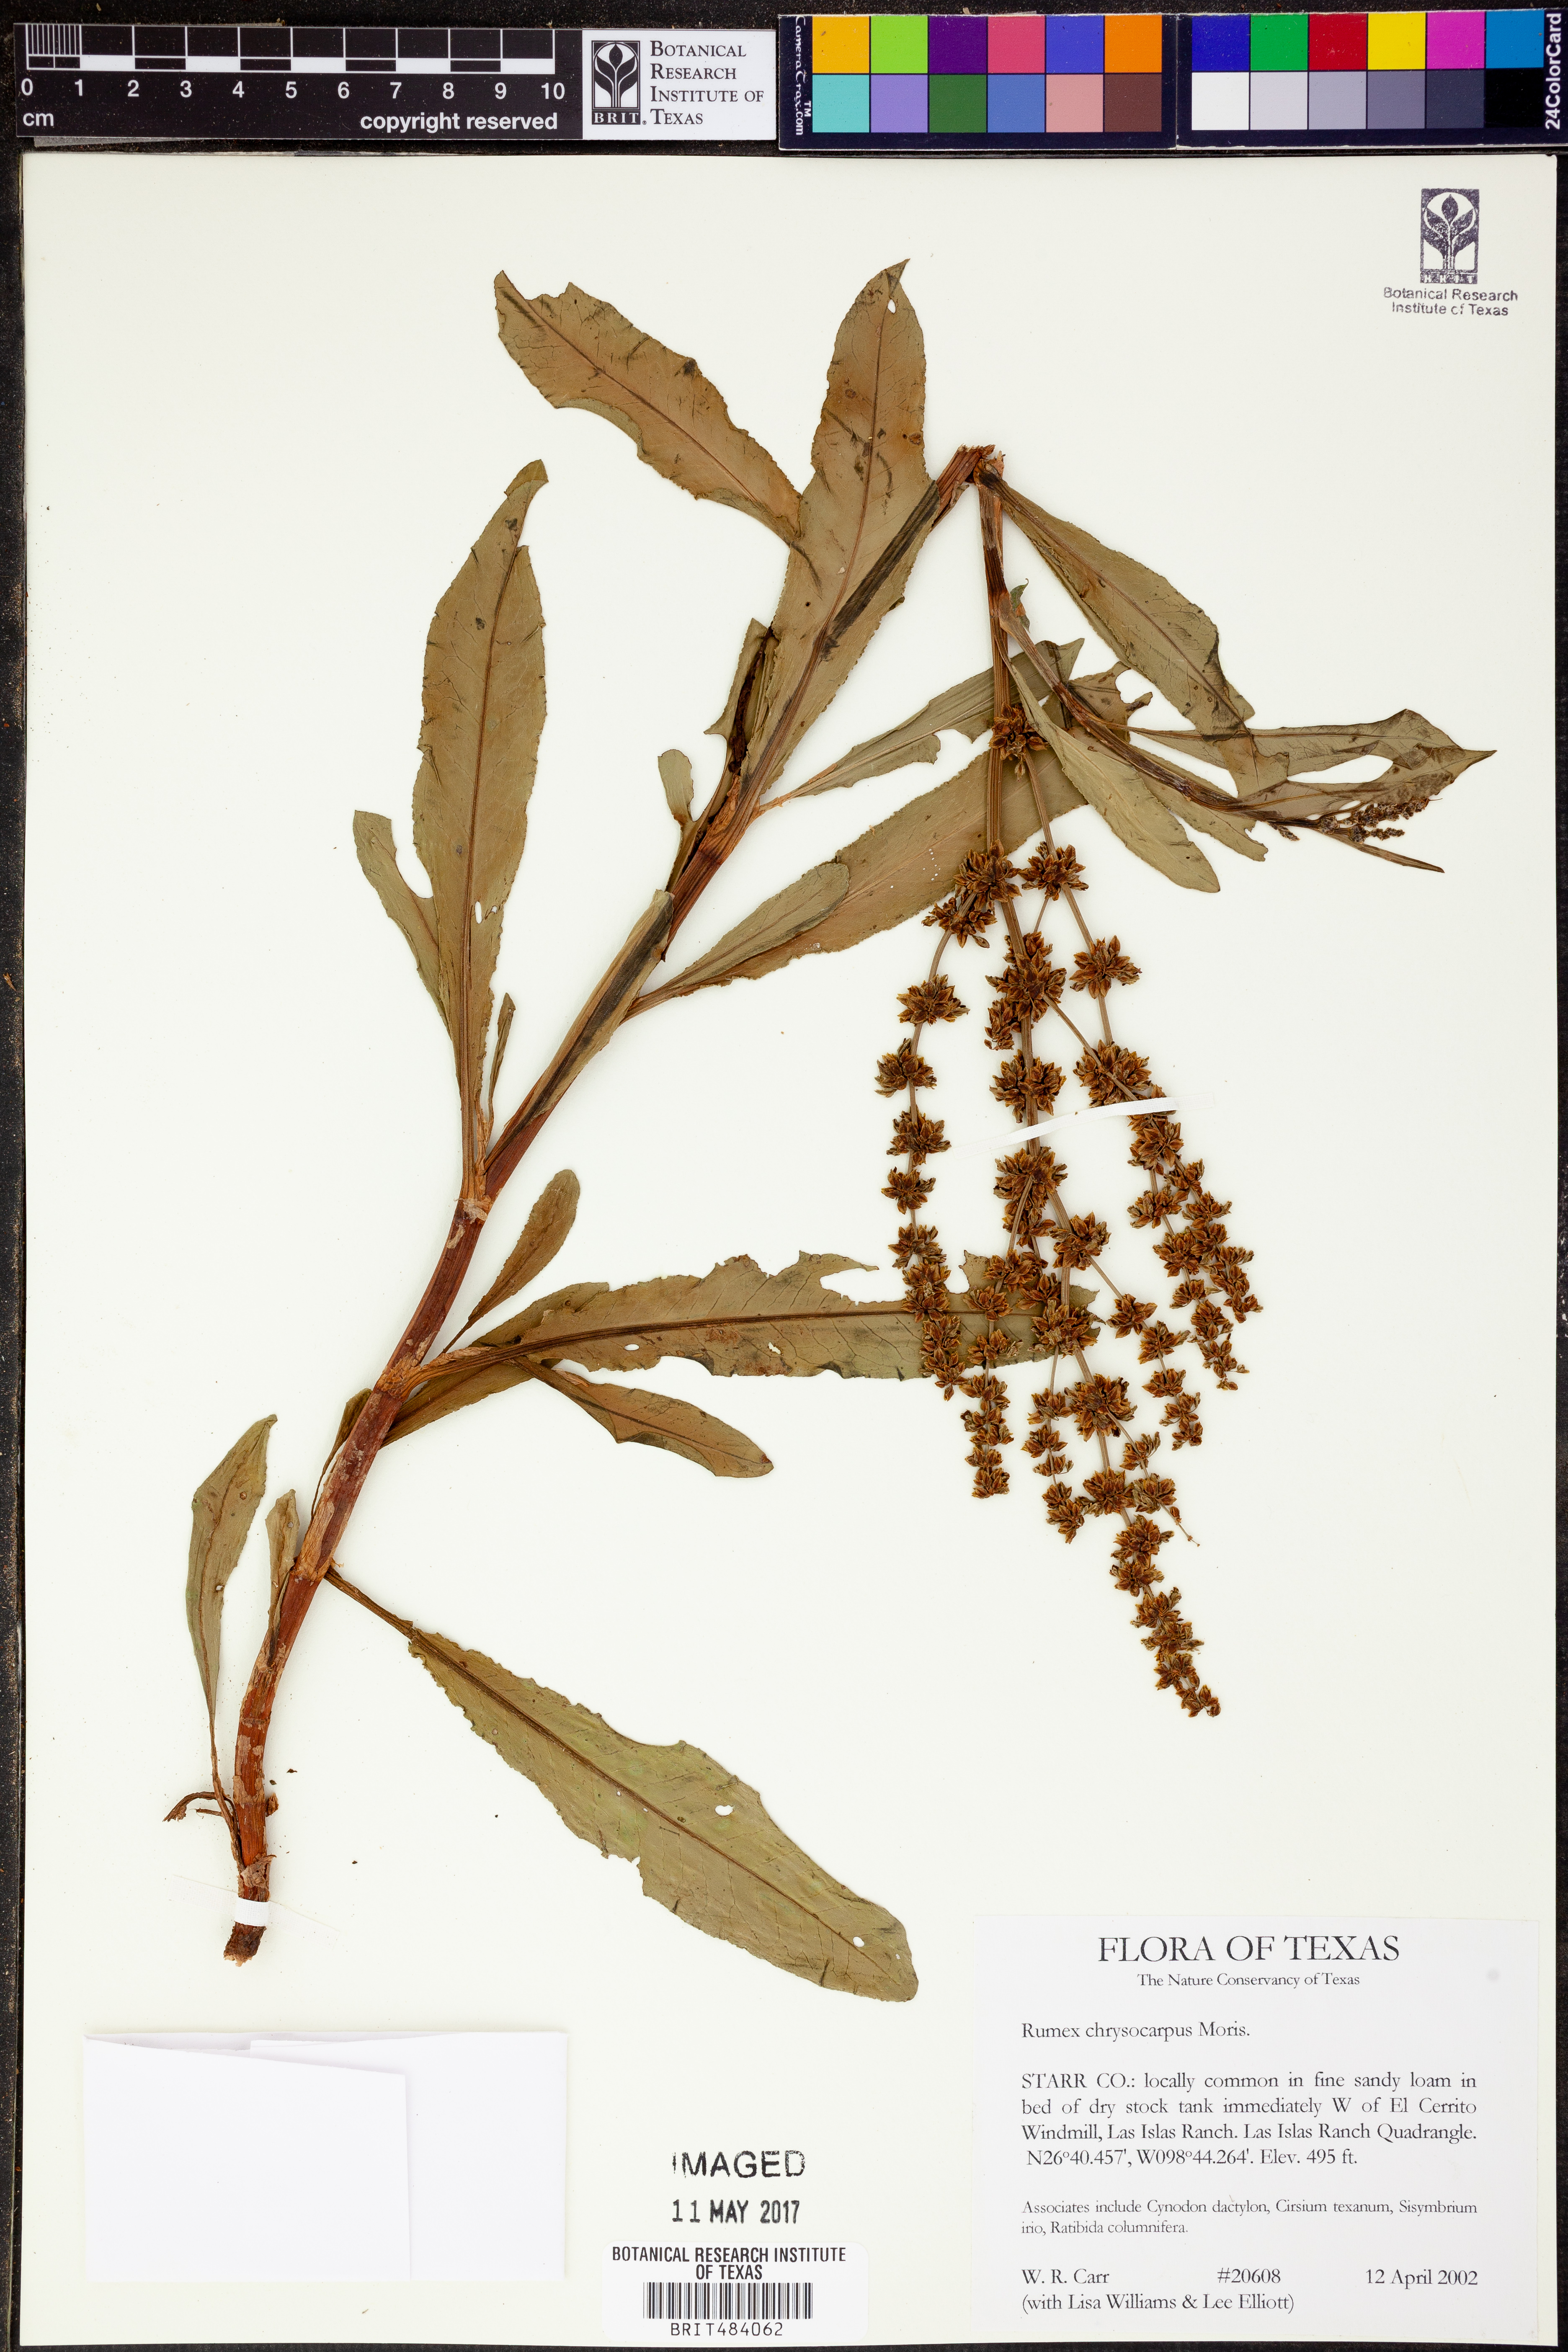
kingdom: Plantae
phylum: Tracheophyta
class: Magnoliopsida
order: Caryophyllales
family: Polygonaceae
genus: Rumex
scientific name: Rumex chrysocarpus
